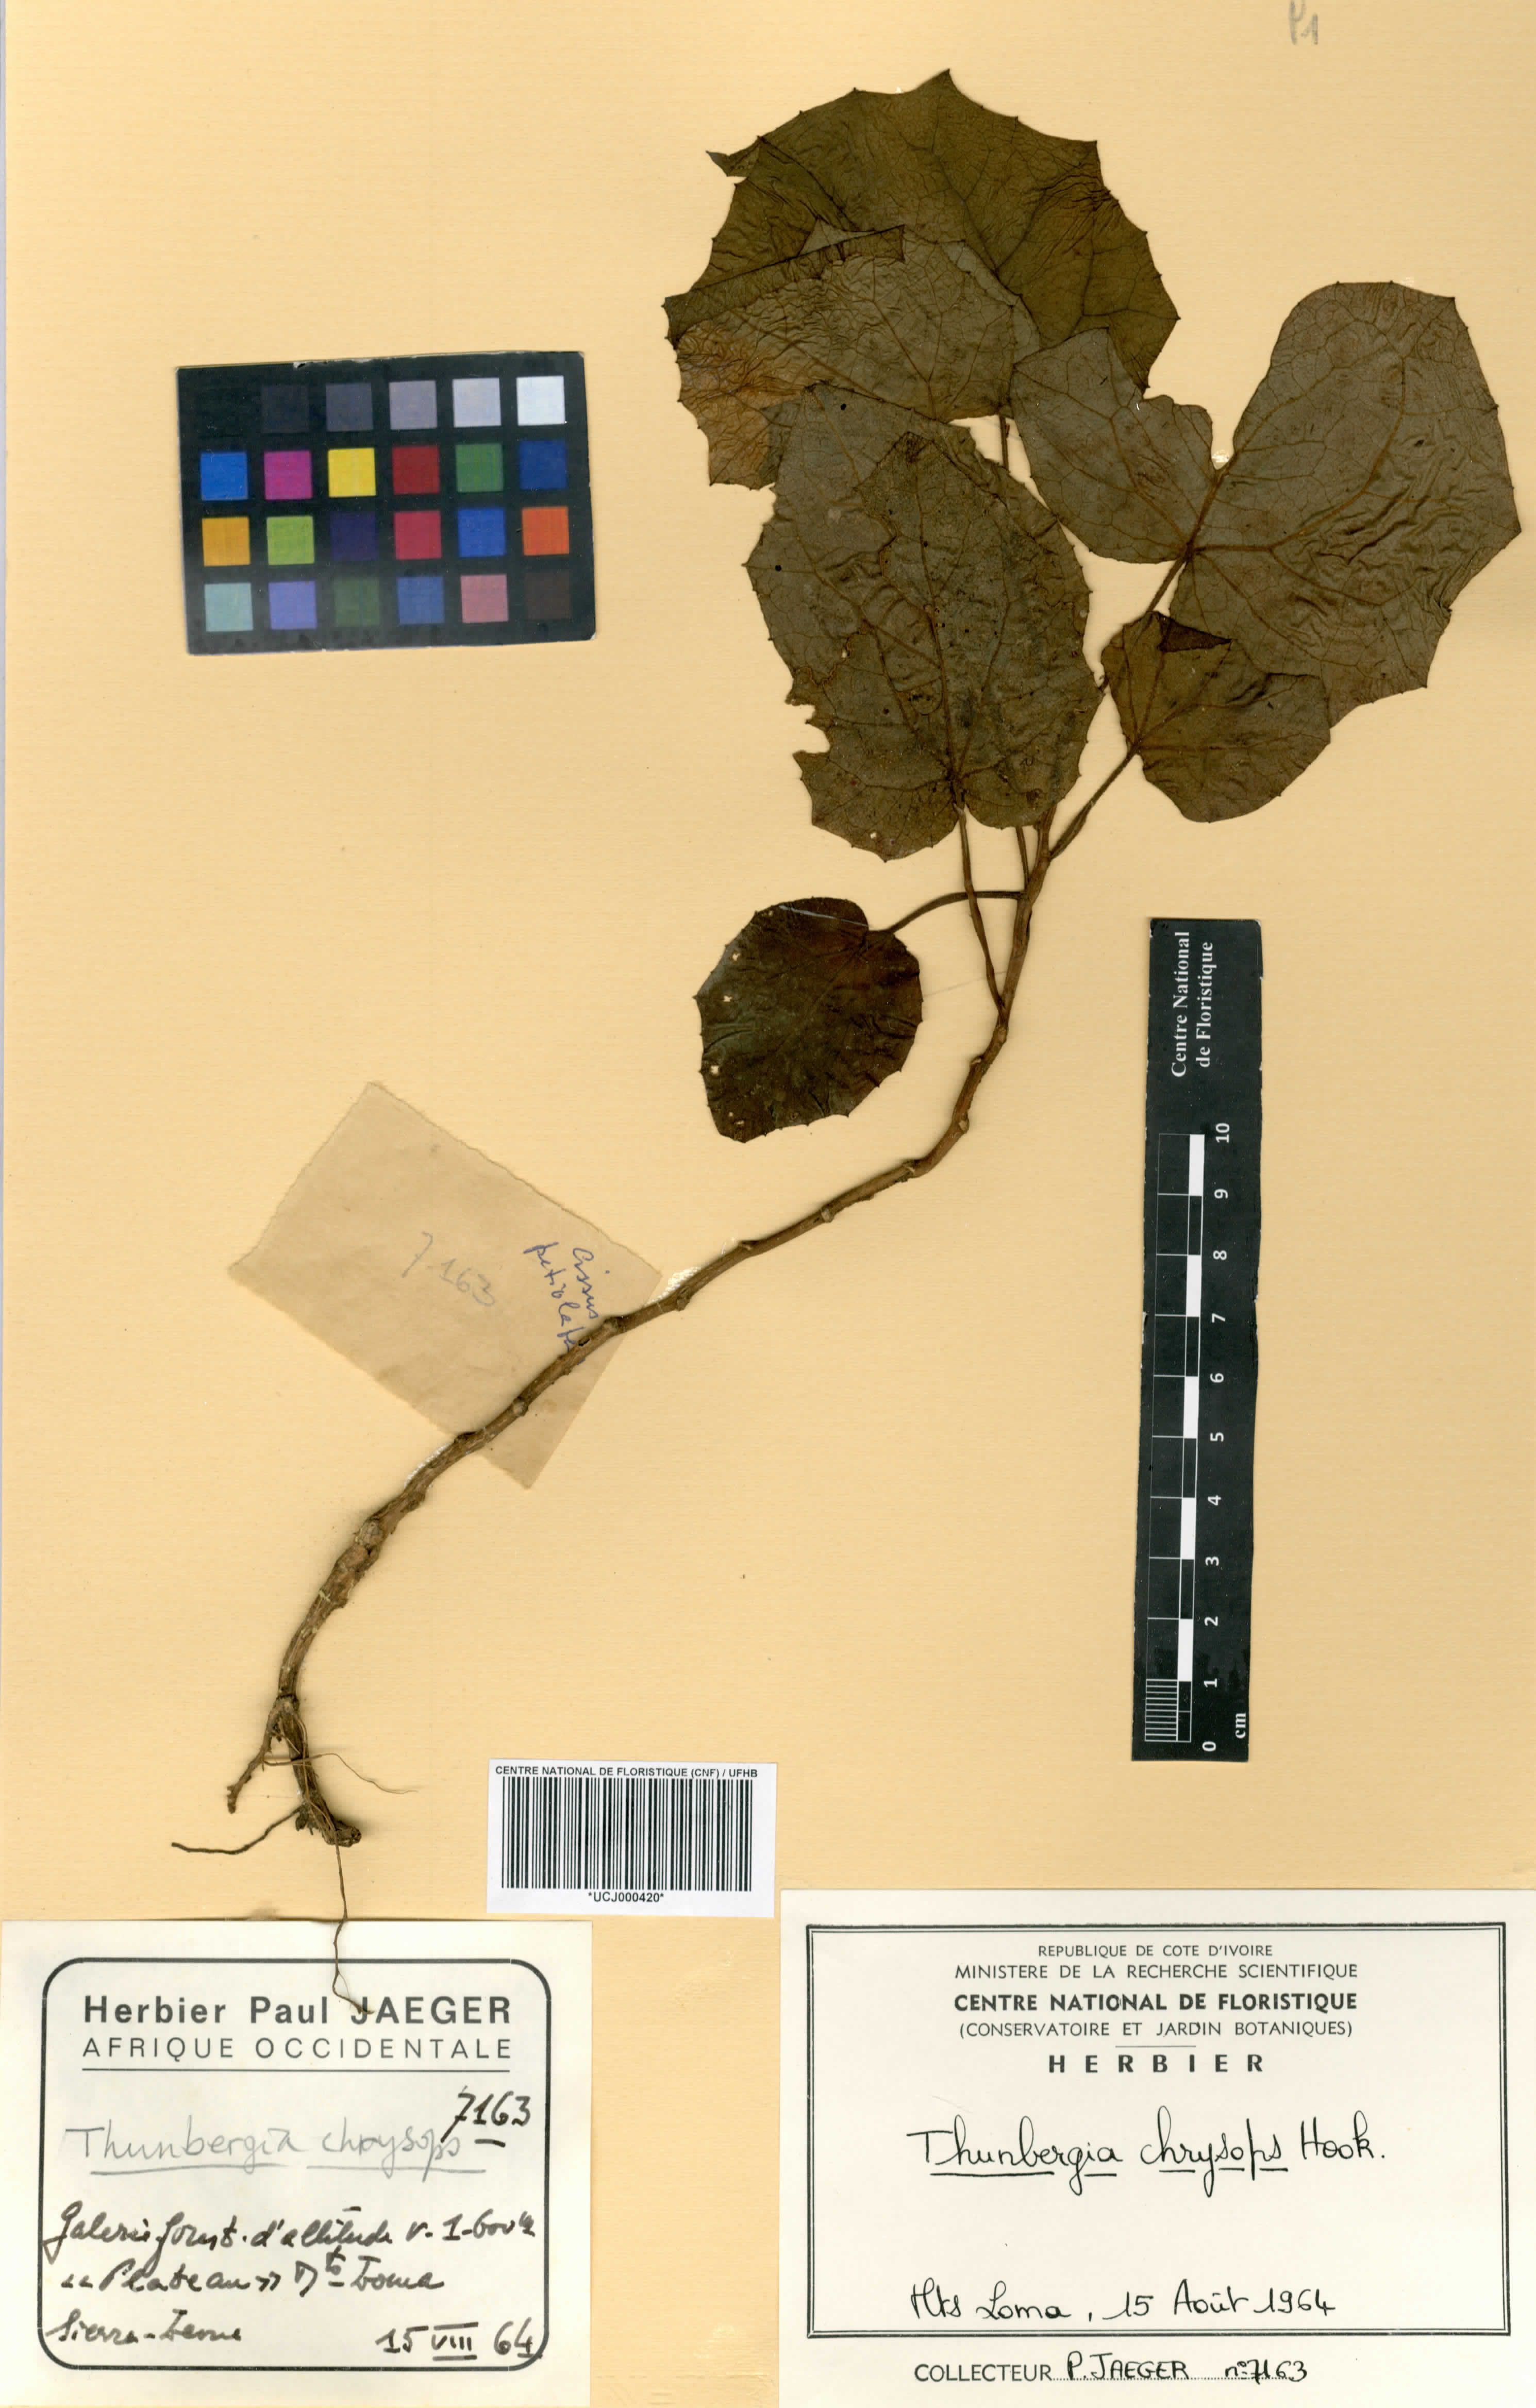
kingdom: Plantae
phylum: Tracheophyta
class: Magnoliopsida
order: Lamiales
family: Acanthaceae
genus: Thunbergia
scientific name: Thunbergia chrysops
